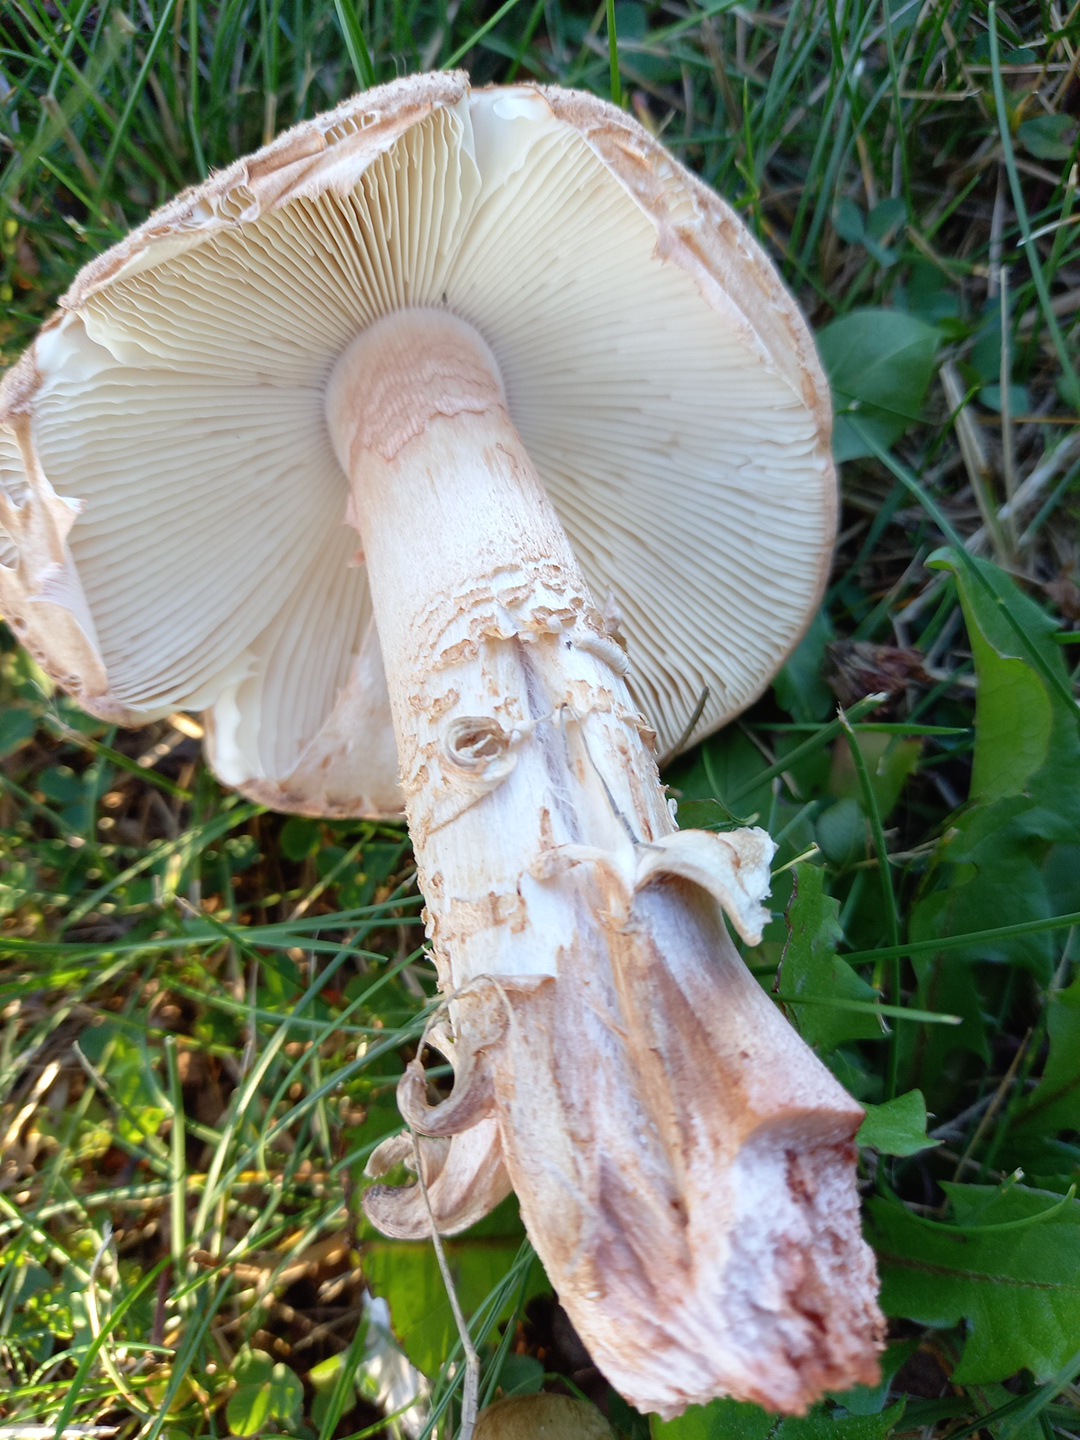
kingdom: Fungi
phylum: Basidiomycota
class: Agaricomycetes
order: Agaricales
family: Amanitaceae
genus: Amanita
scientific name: Amanita rubescens
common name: rødmende fluesvamp
